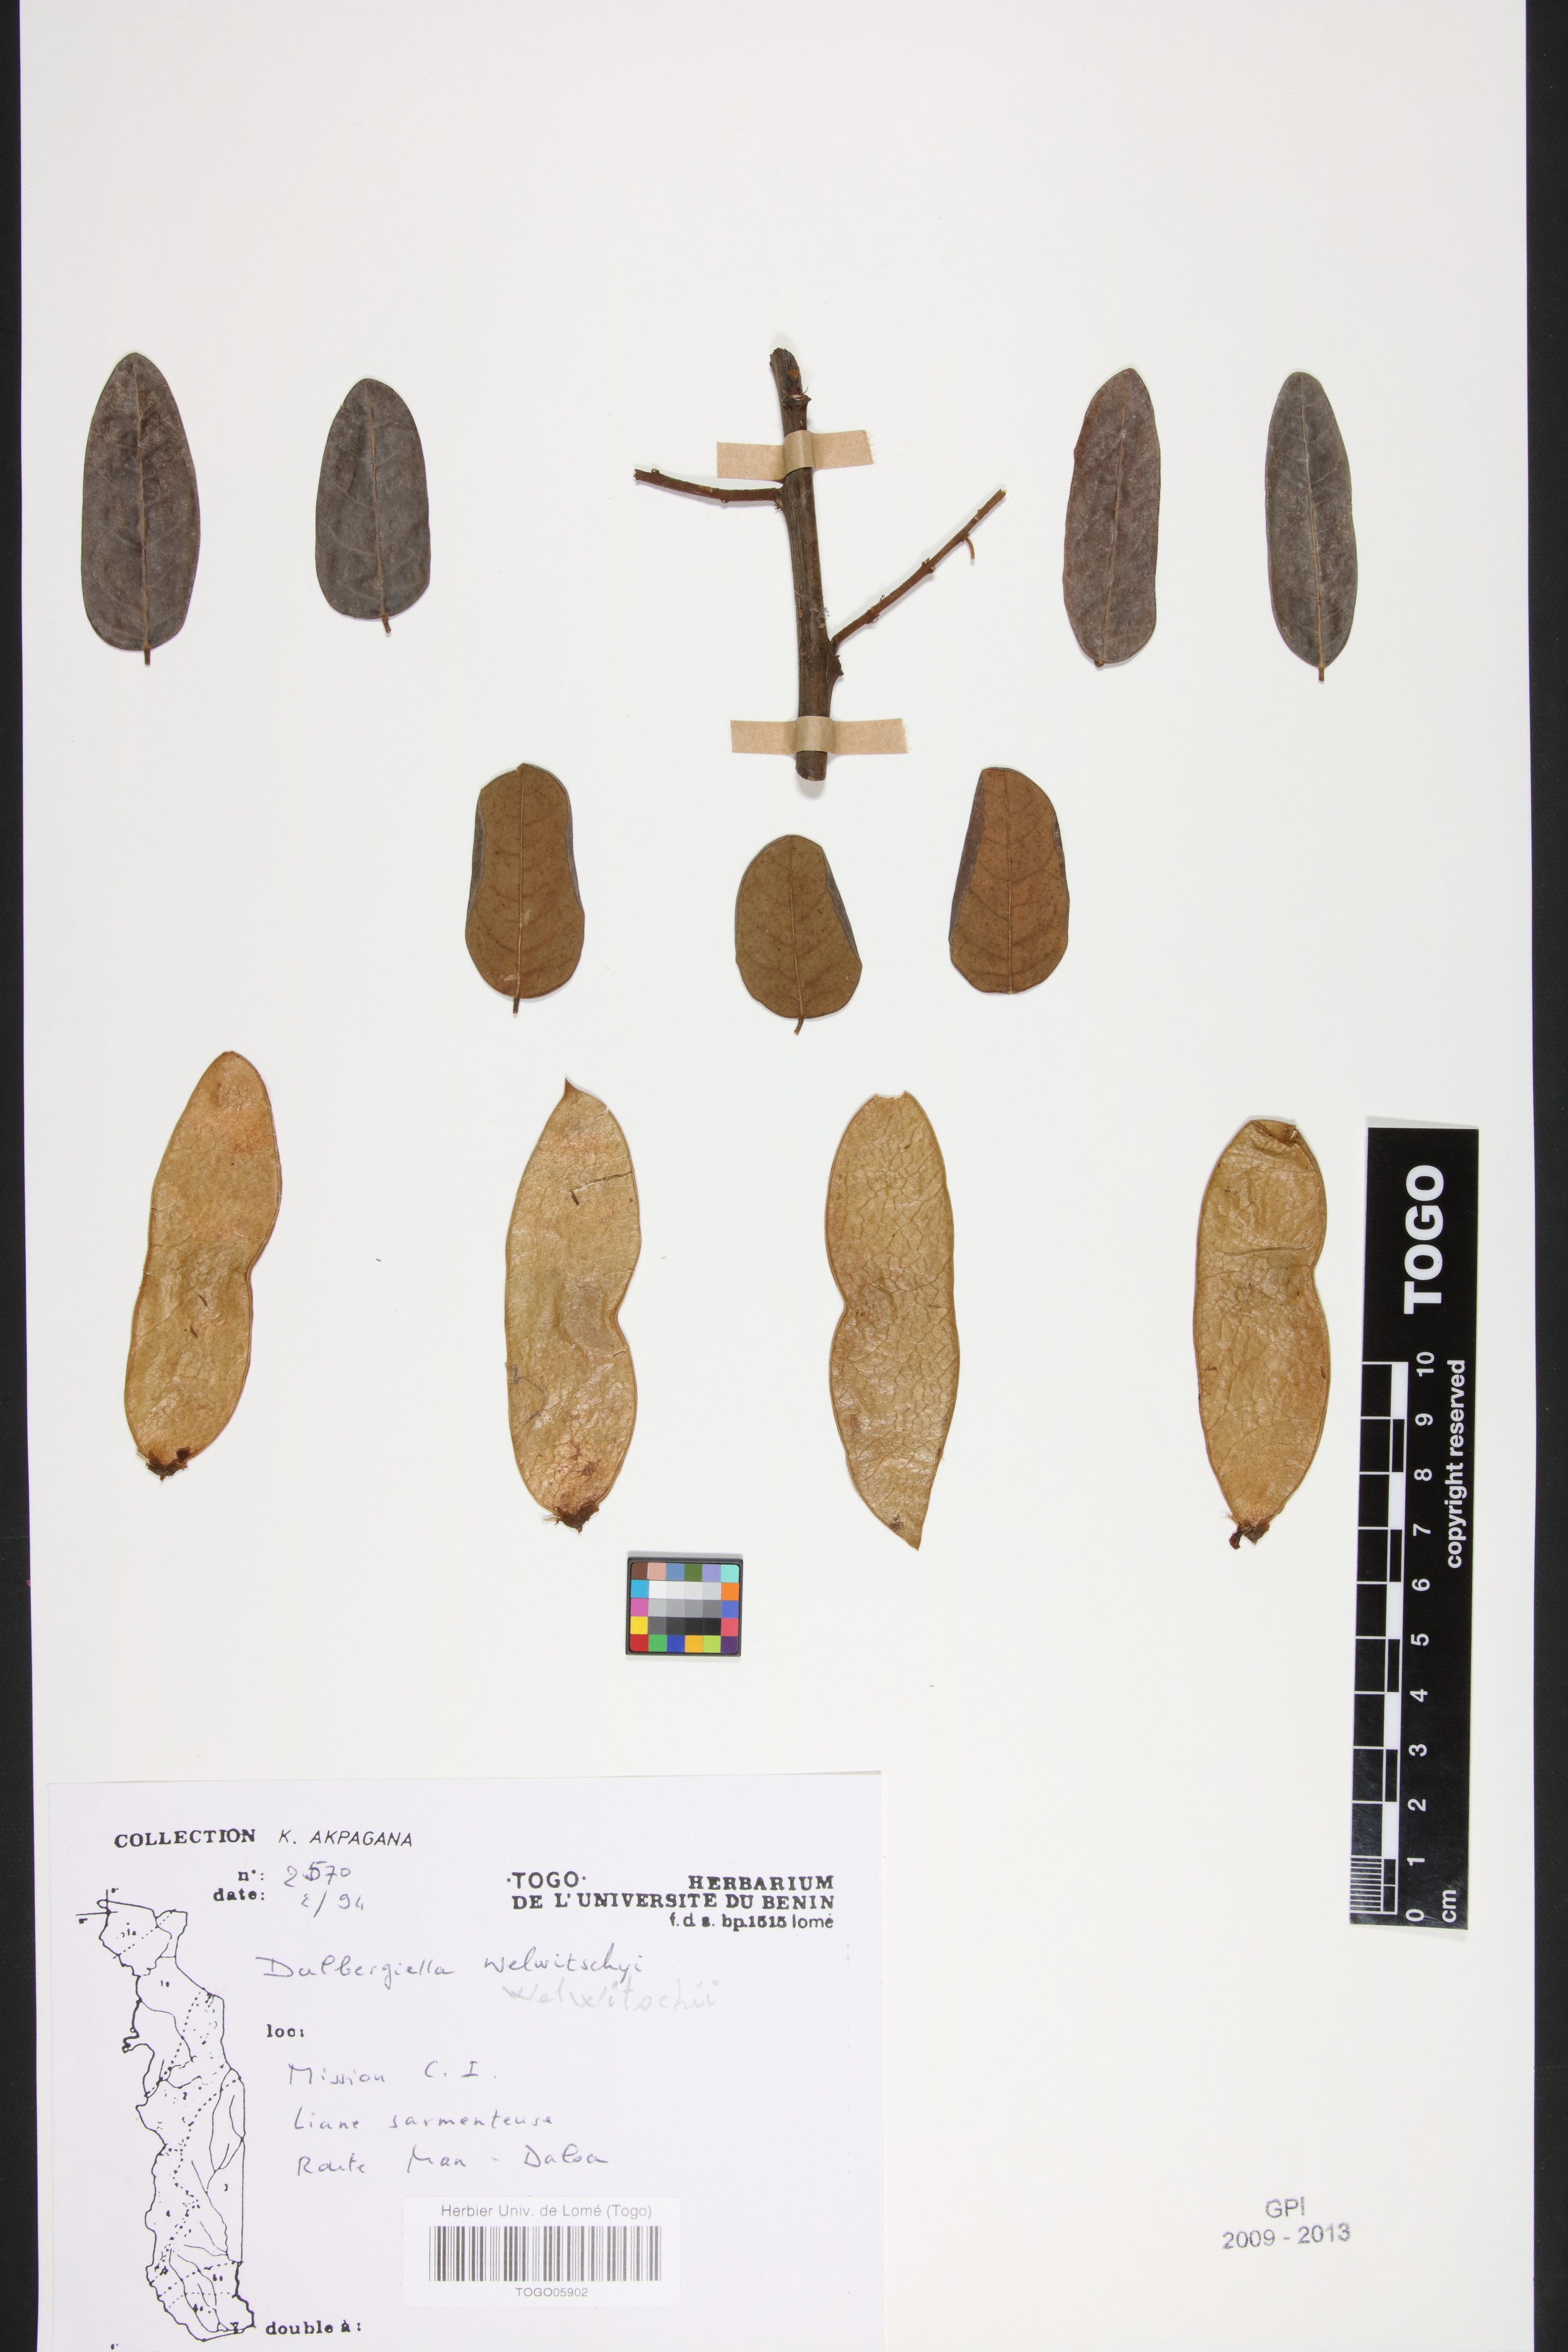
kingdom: Plantae
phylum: Tracheophyta
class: Magnoliopsida
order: Fabales
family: Fabaceae
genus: Dalbergiella
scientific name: Dalbergiella welwitschii
